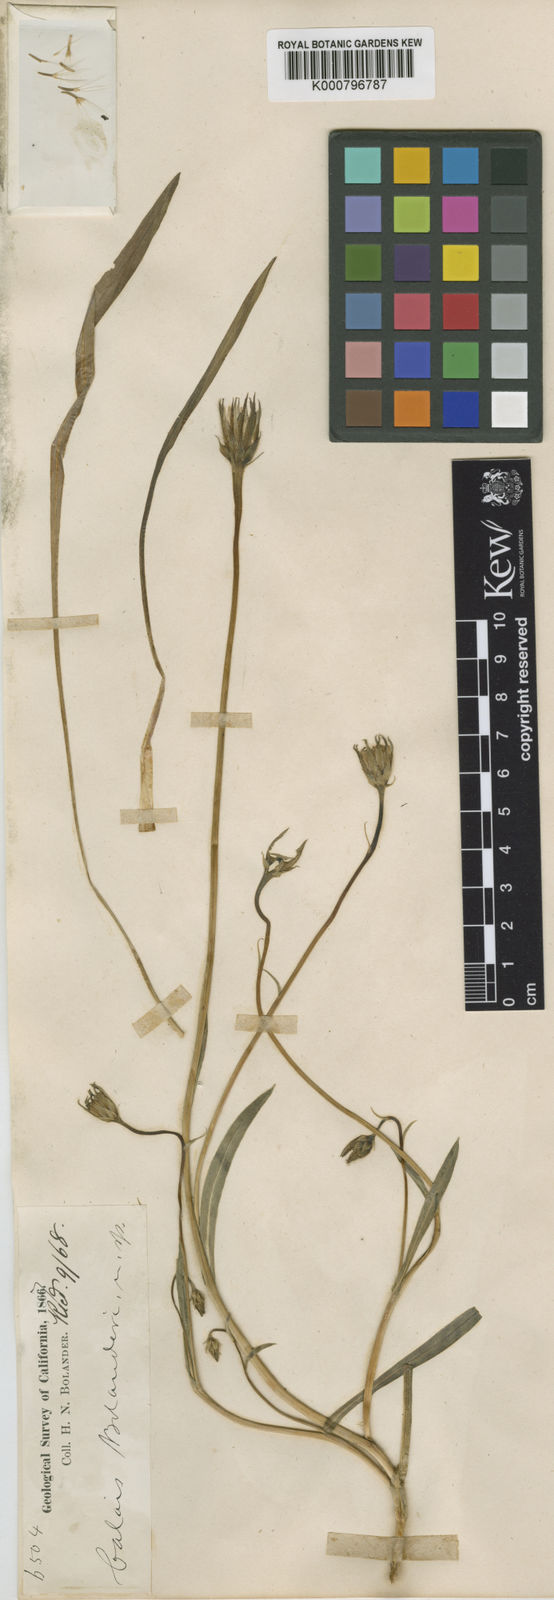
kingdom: Plantae
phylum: Tracheophyta
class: Magnoliopsida
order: Asterales
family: Asteraceae
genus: Microseris
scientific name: Microseris laciniata
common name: Cut-leaf microseris
